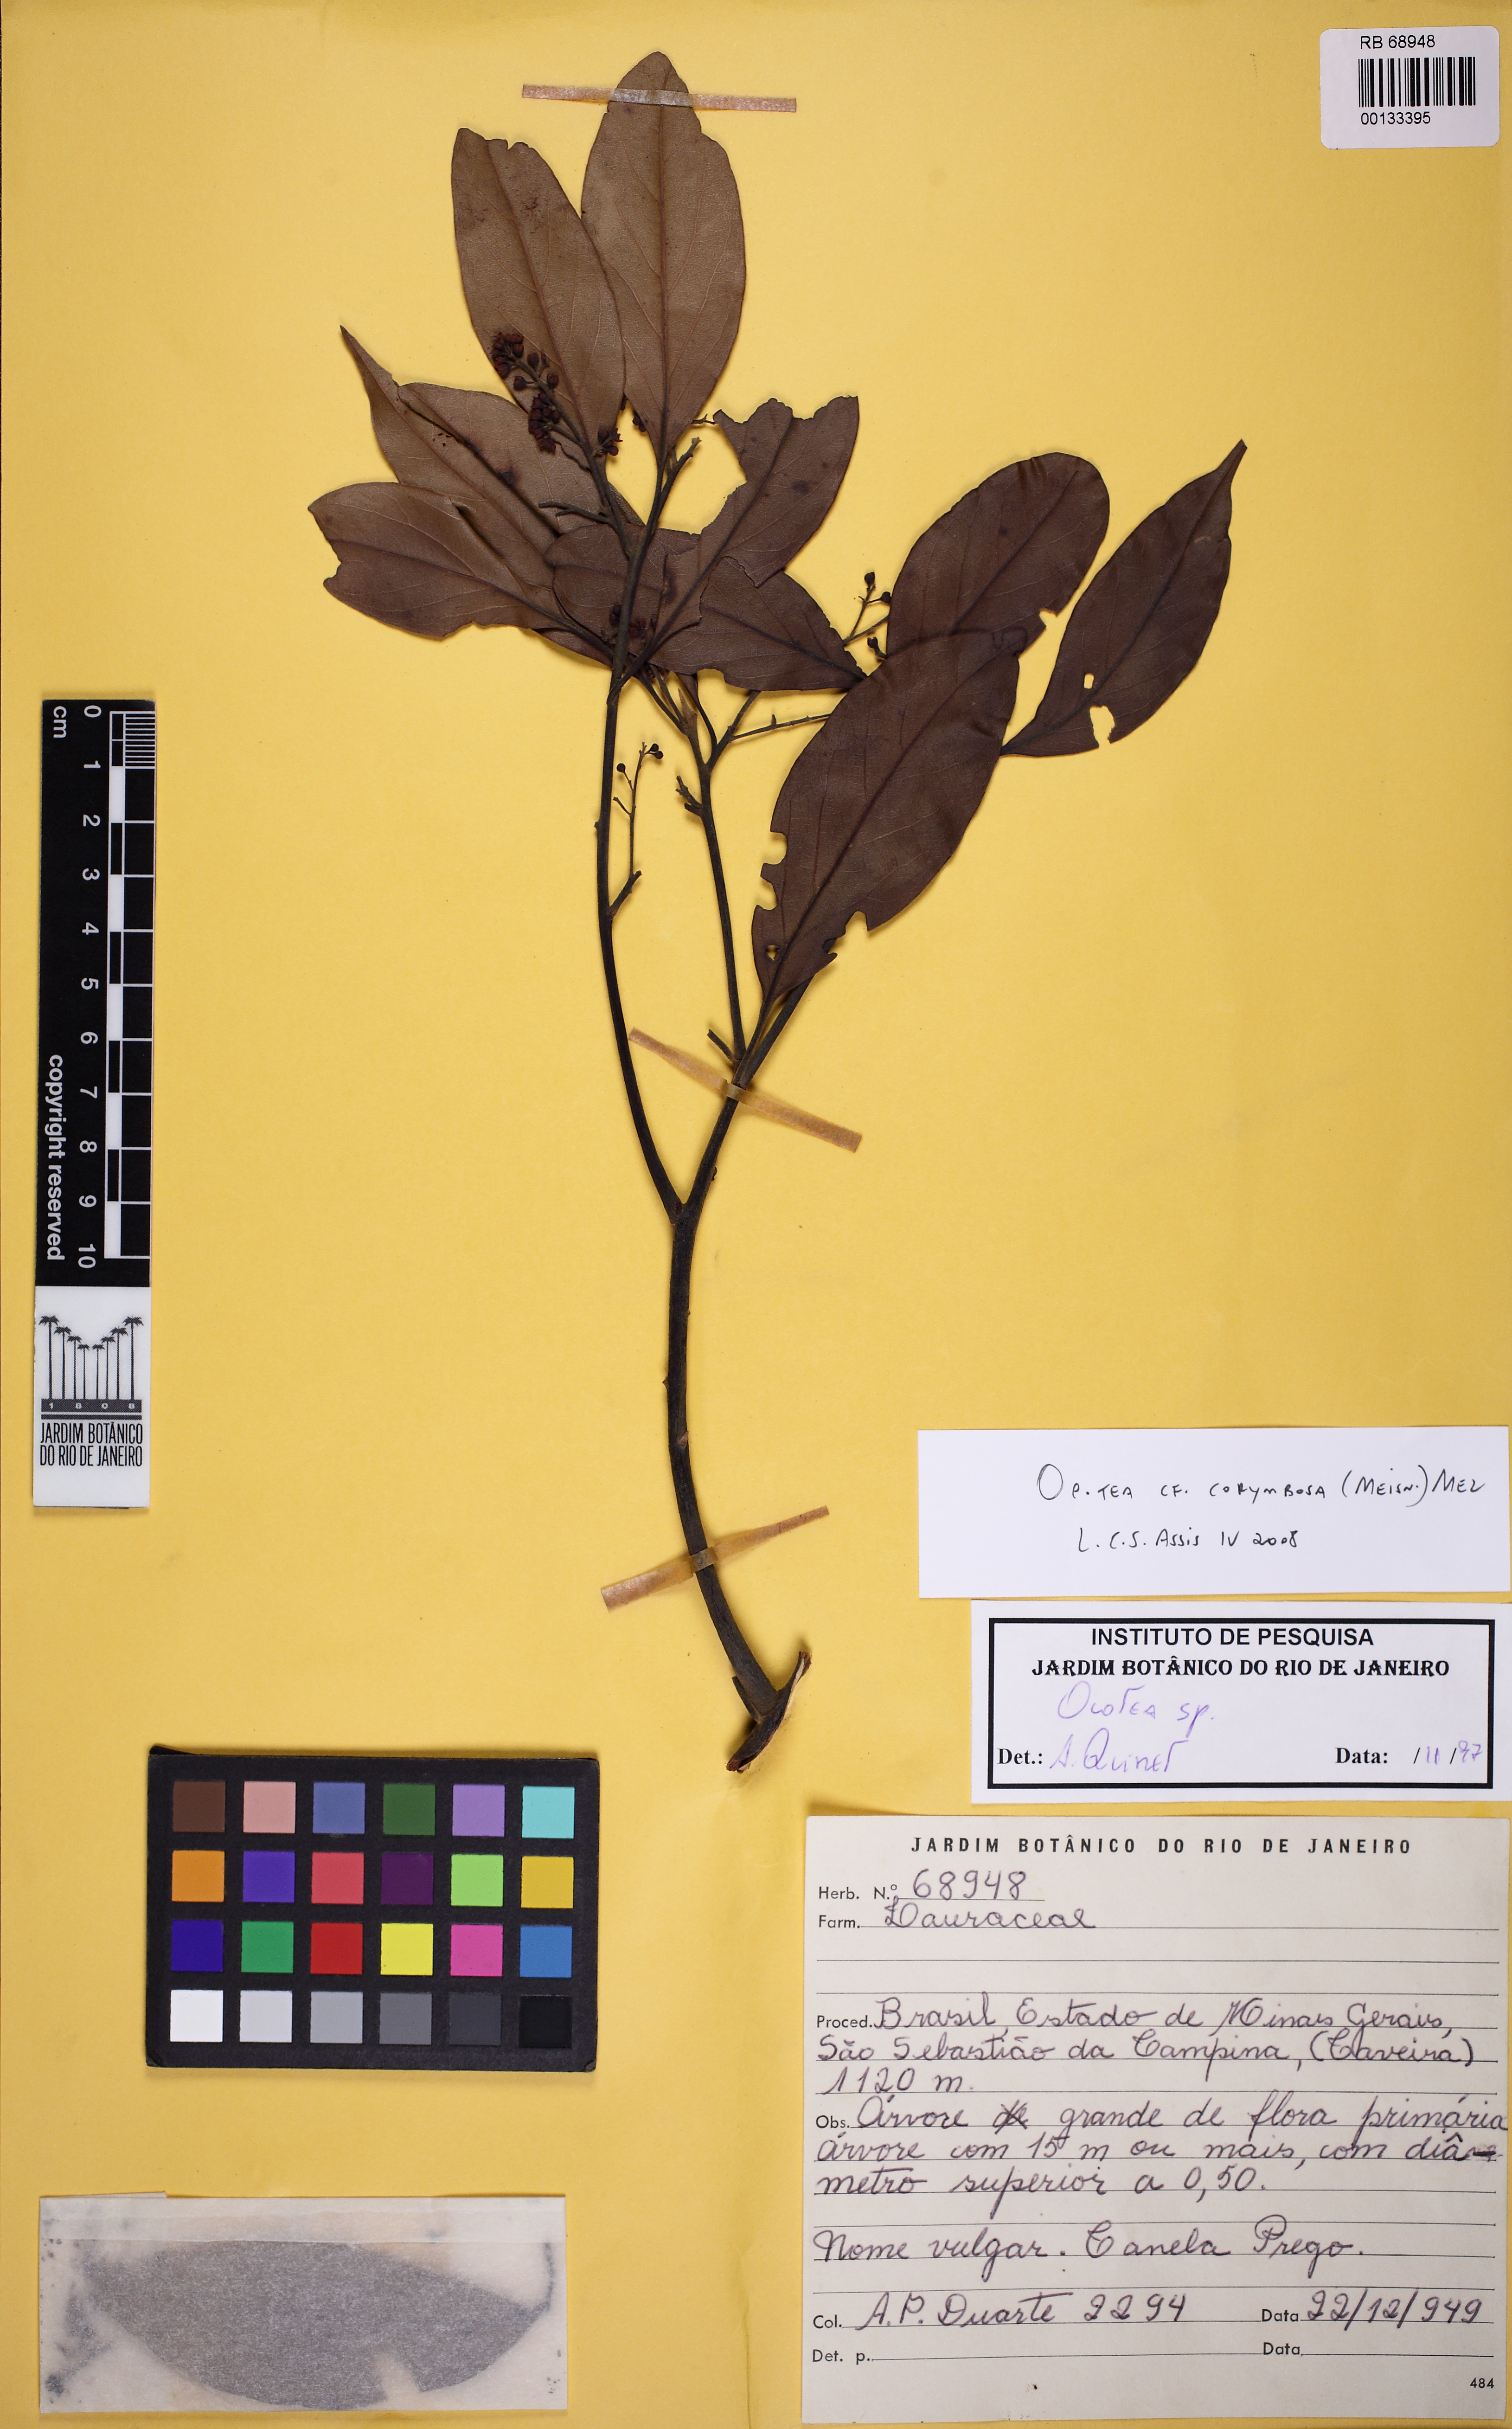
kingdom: Plantae
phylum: Tracheophyta
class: Magnoliopsida
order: Laurales
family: Lauraceae
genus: Mespilodaphne
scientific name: Mespilodaphne corymbosa
